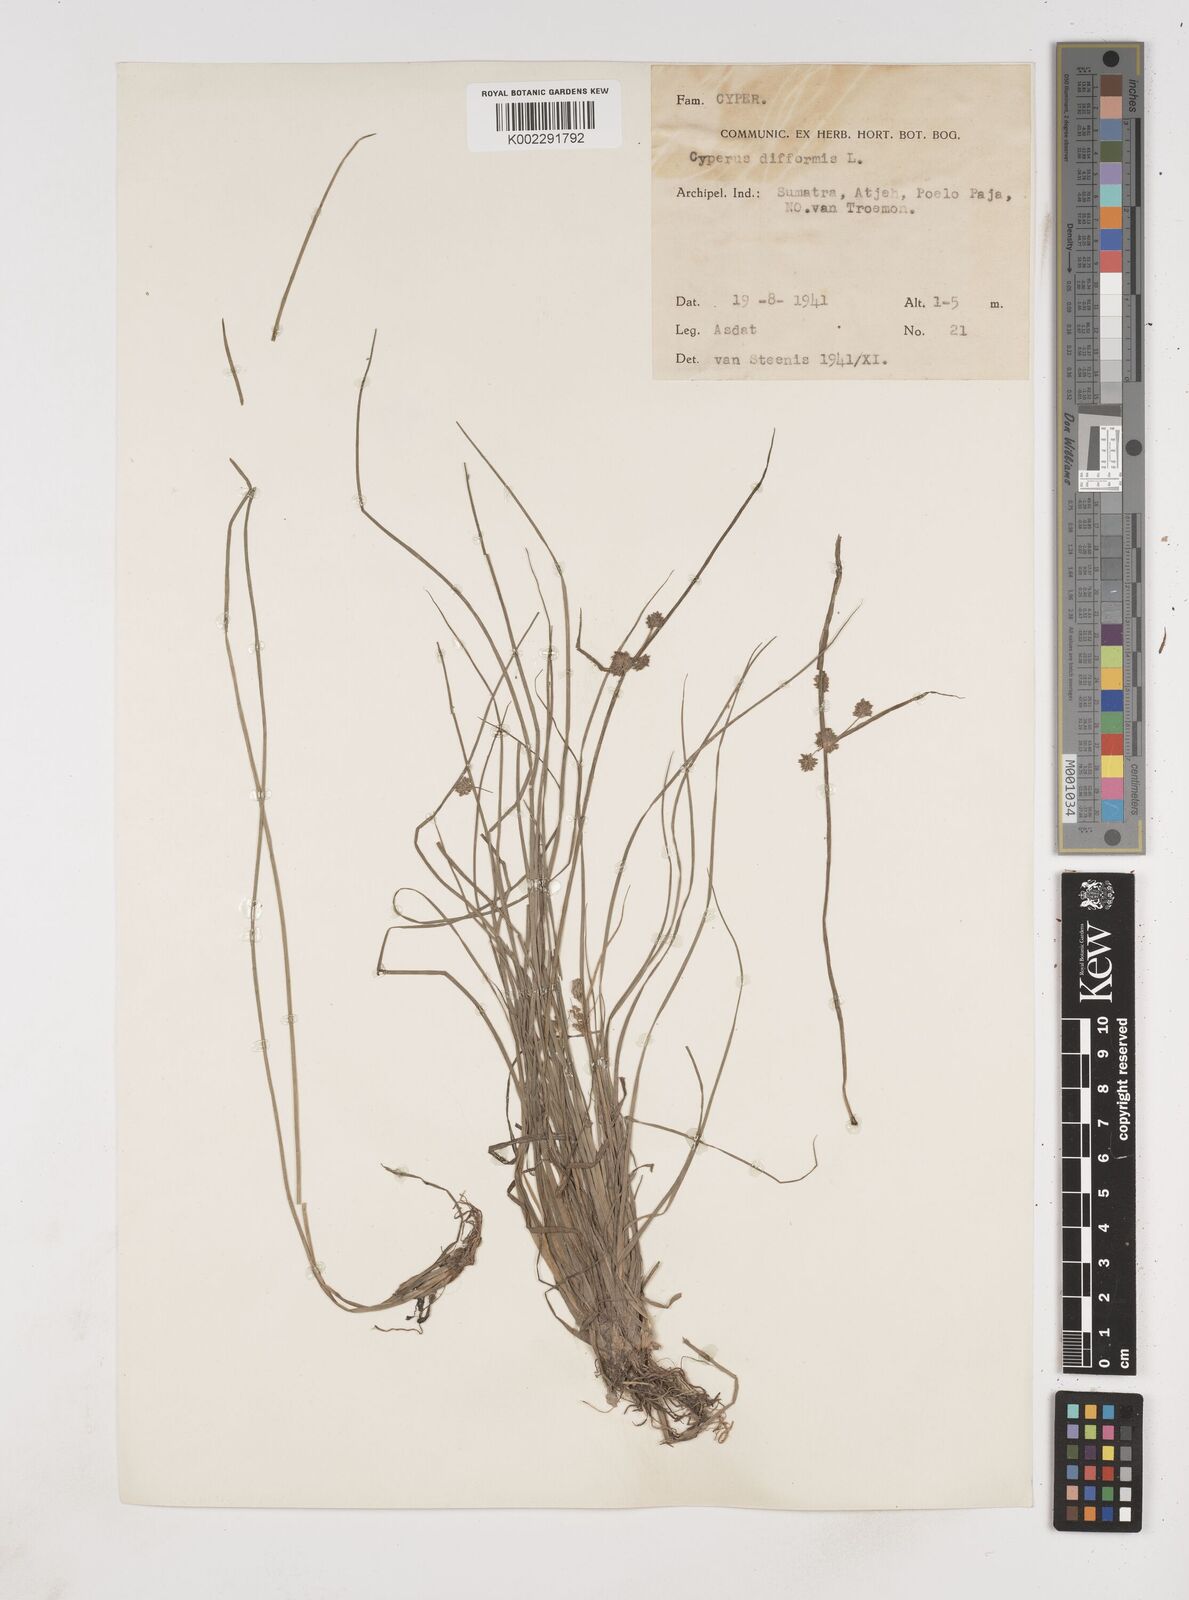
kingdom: Plantae
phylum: Tracheophyta
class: Liliopsida
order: Poales
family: Cyperaceae
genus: Cyperus
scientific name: Cyperus difformis
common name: Variable flatsedge
